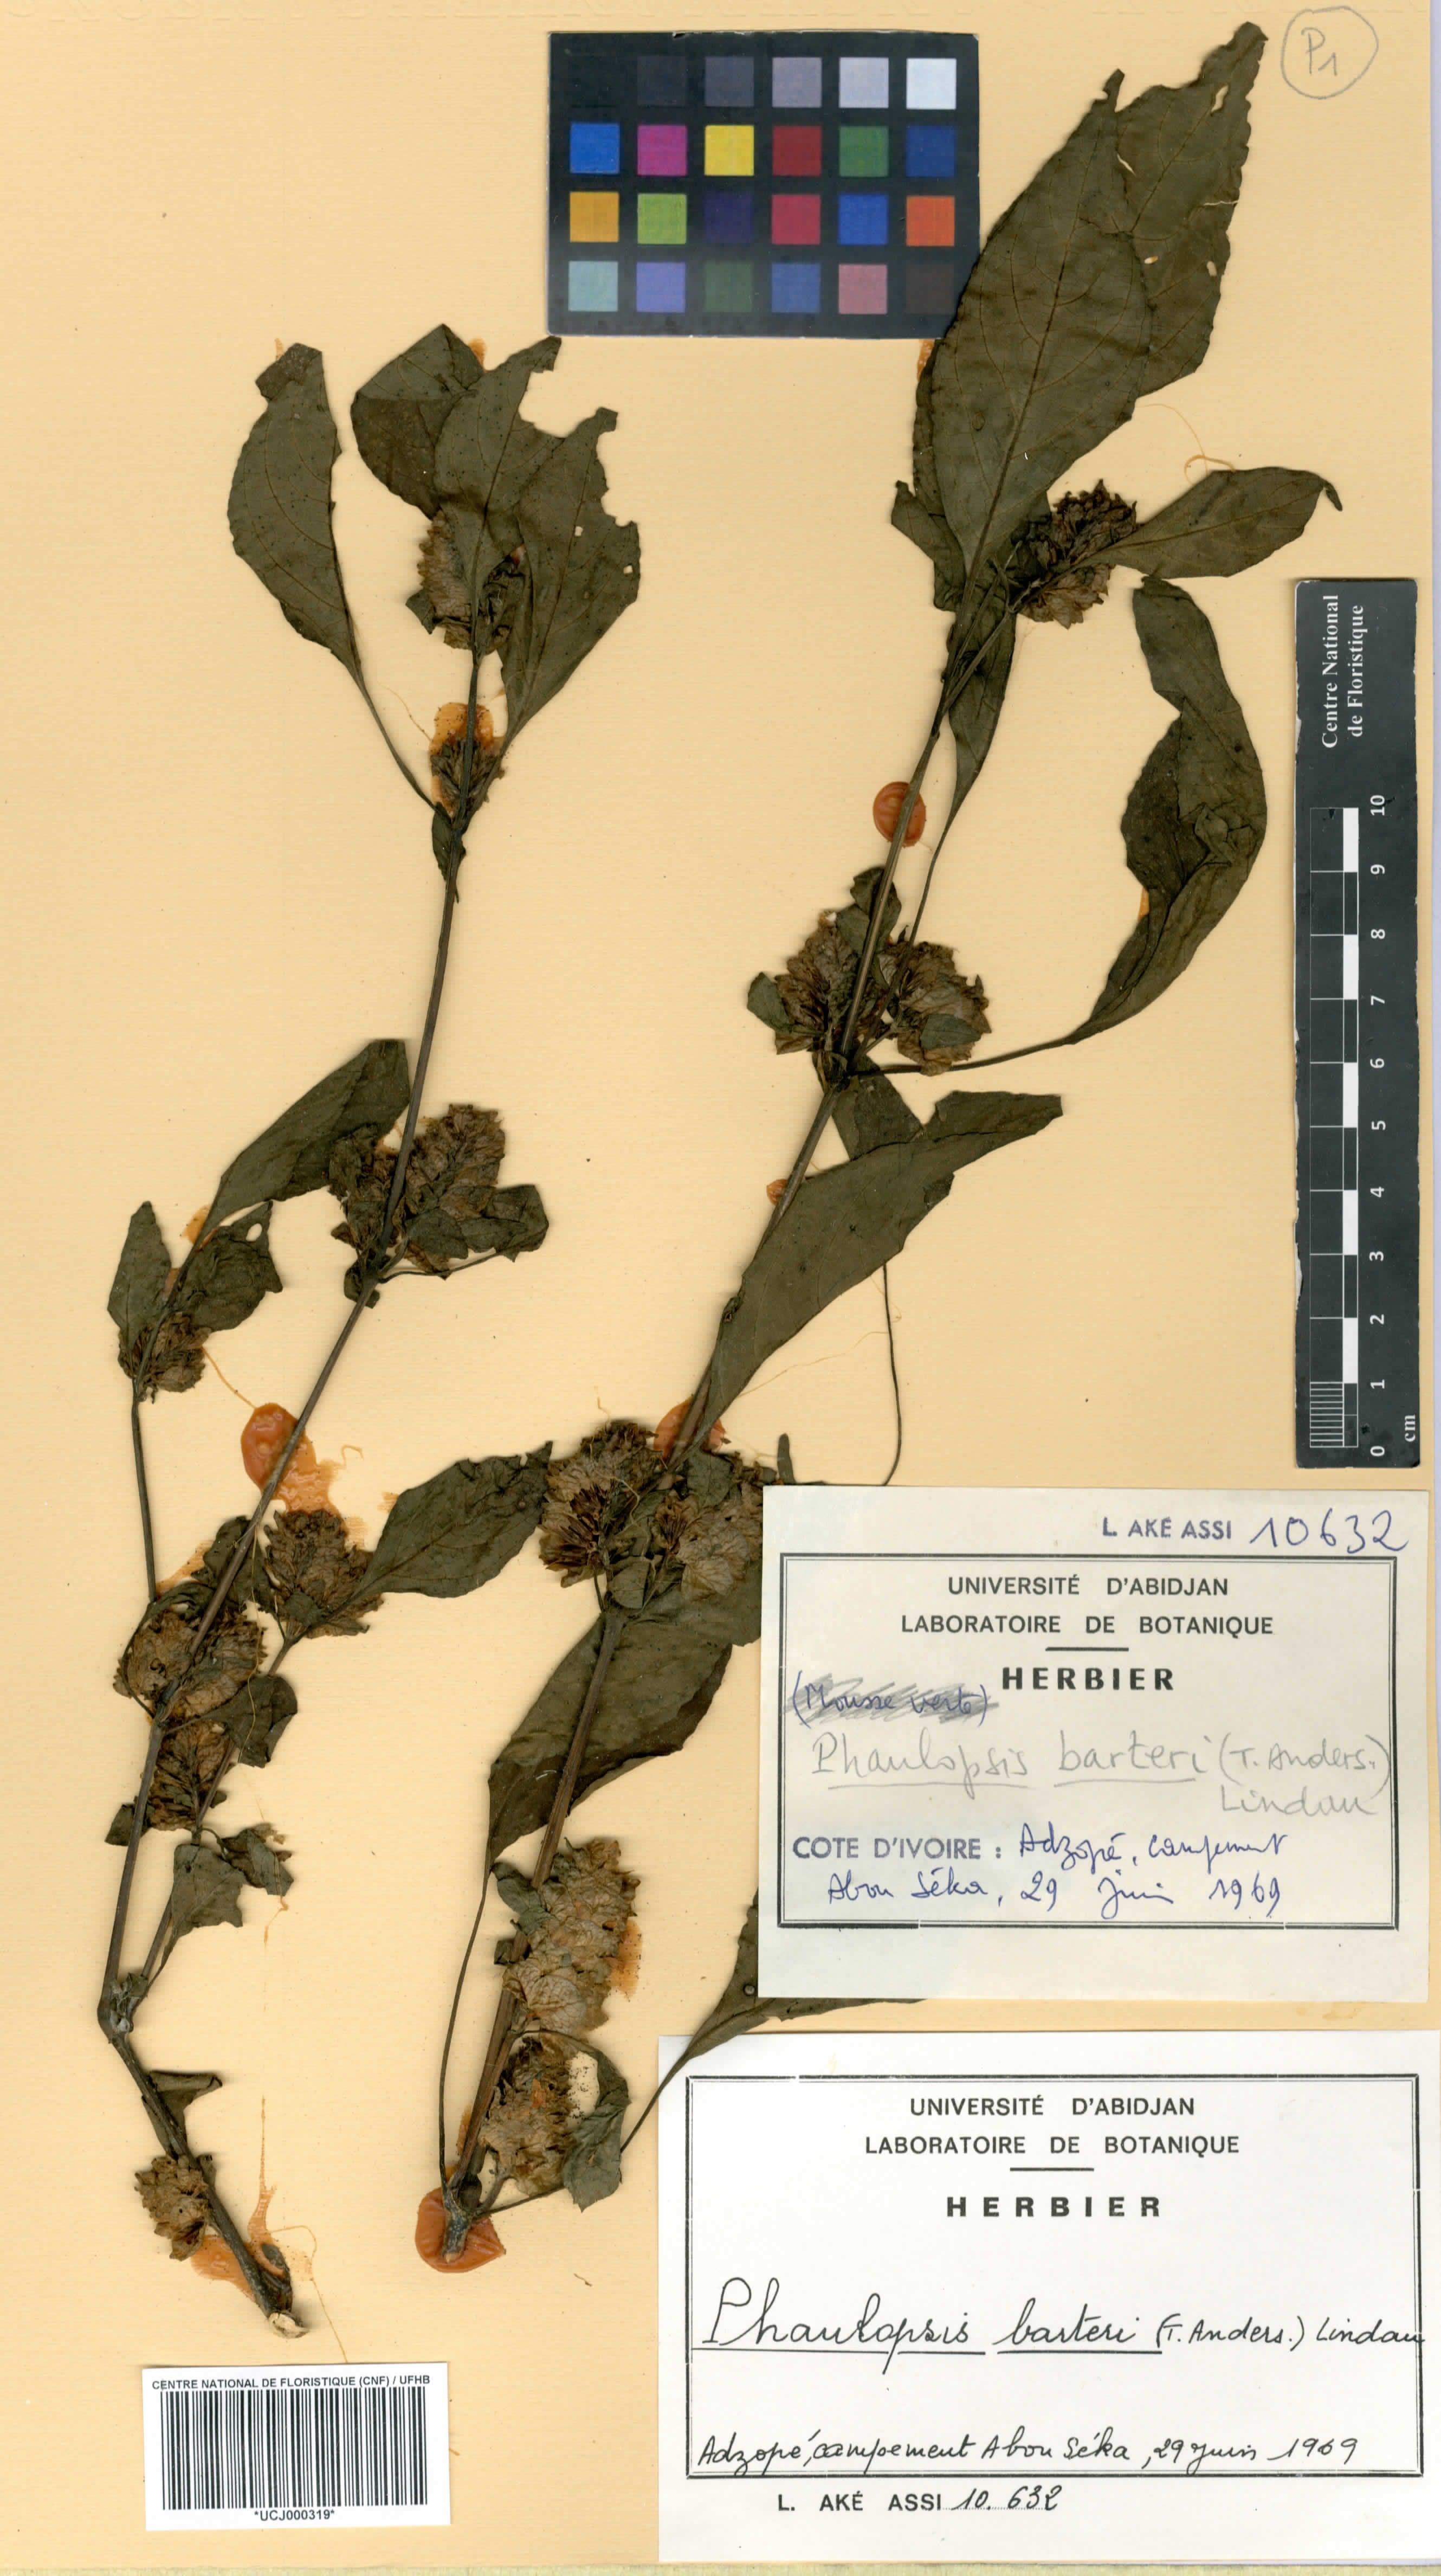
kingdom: Plantae
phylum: Tracheophyta
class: Magnoliopsida
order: Lamiales
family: Acanthaceae
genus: Phaulopsis
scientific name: Phaulopsis barteri
